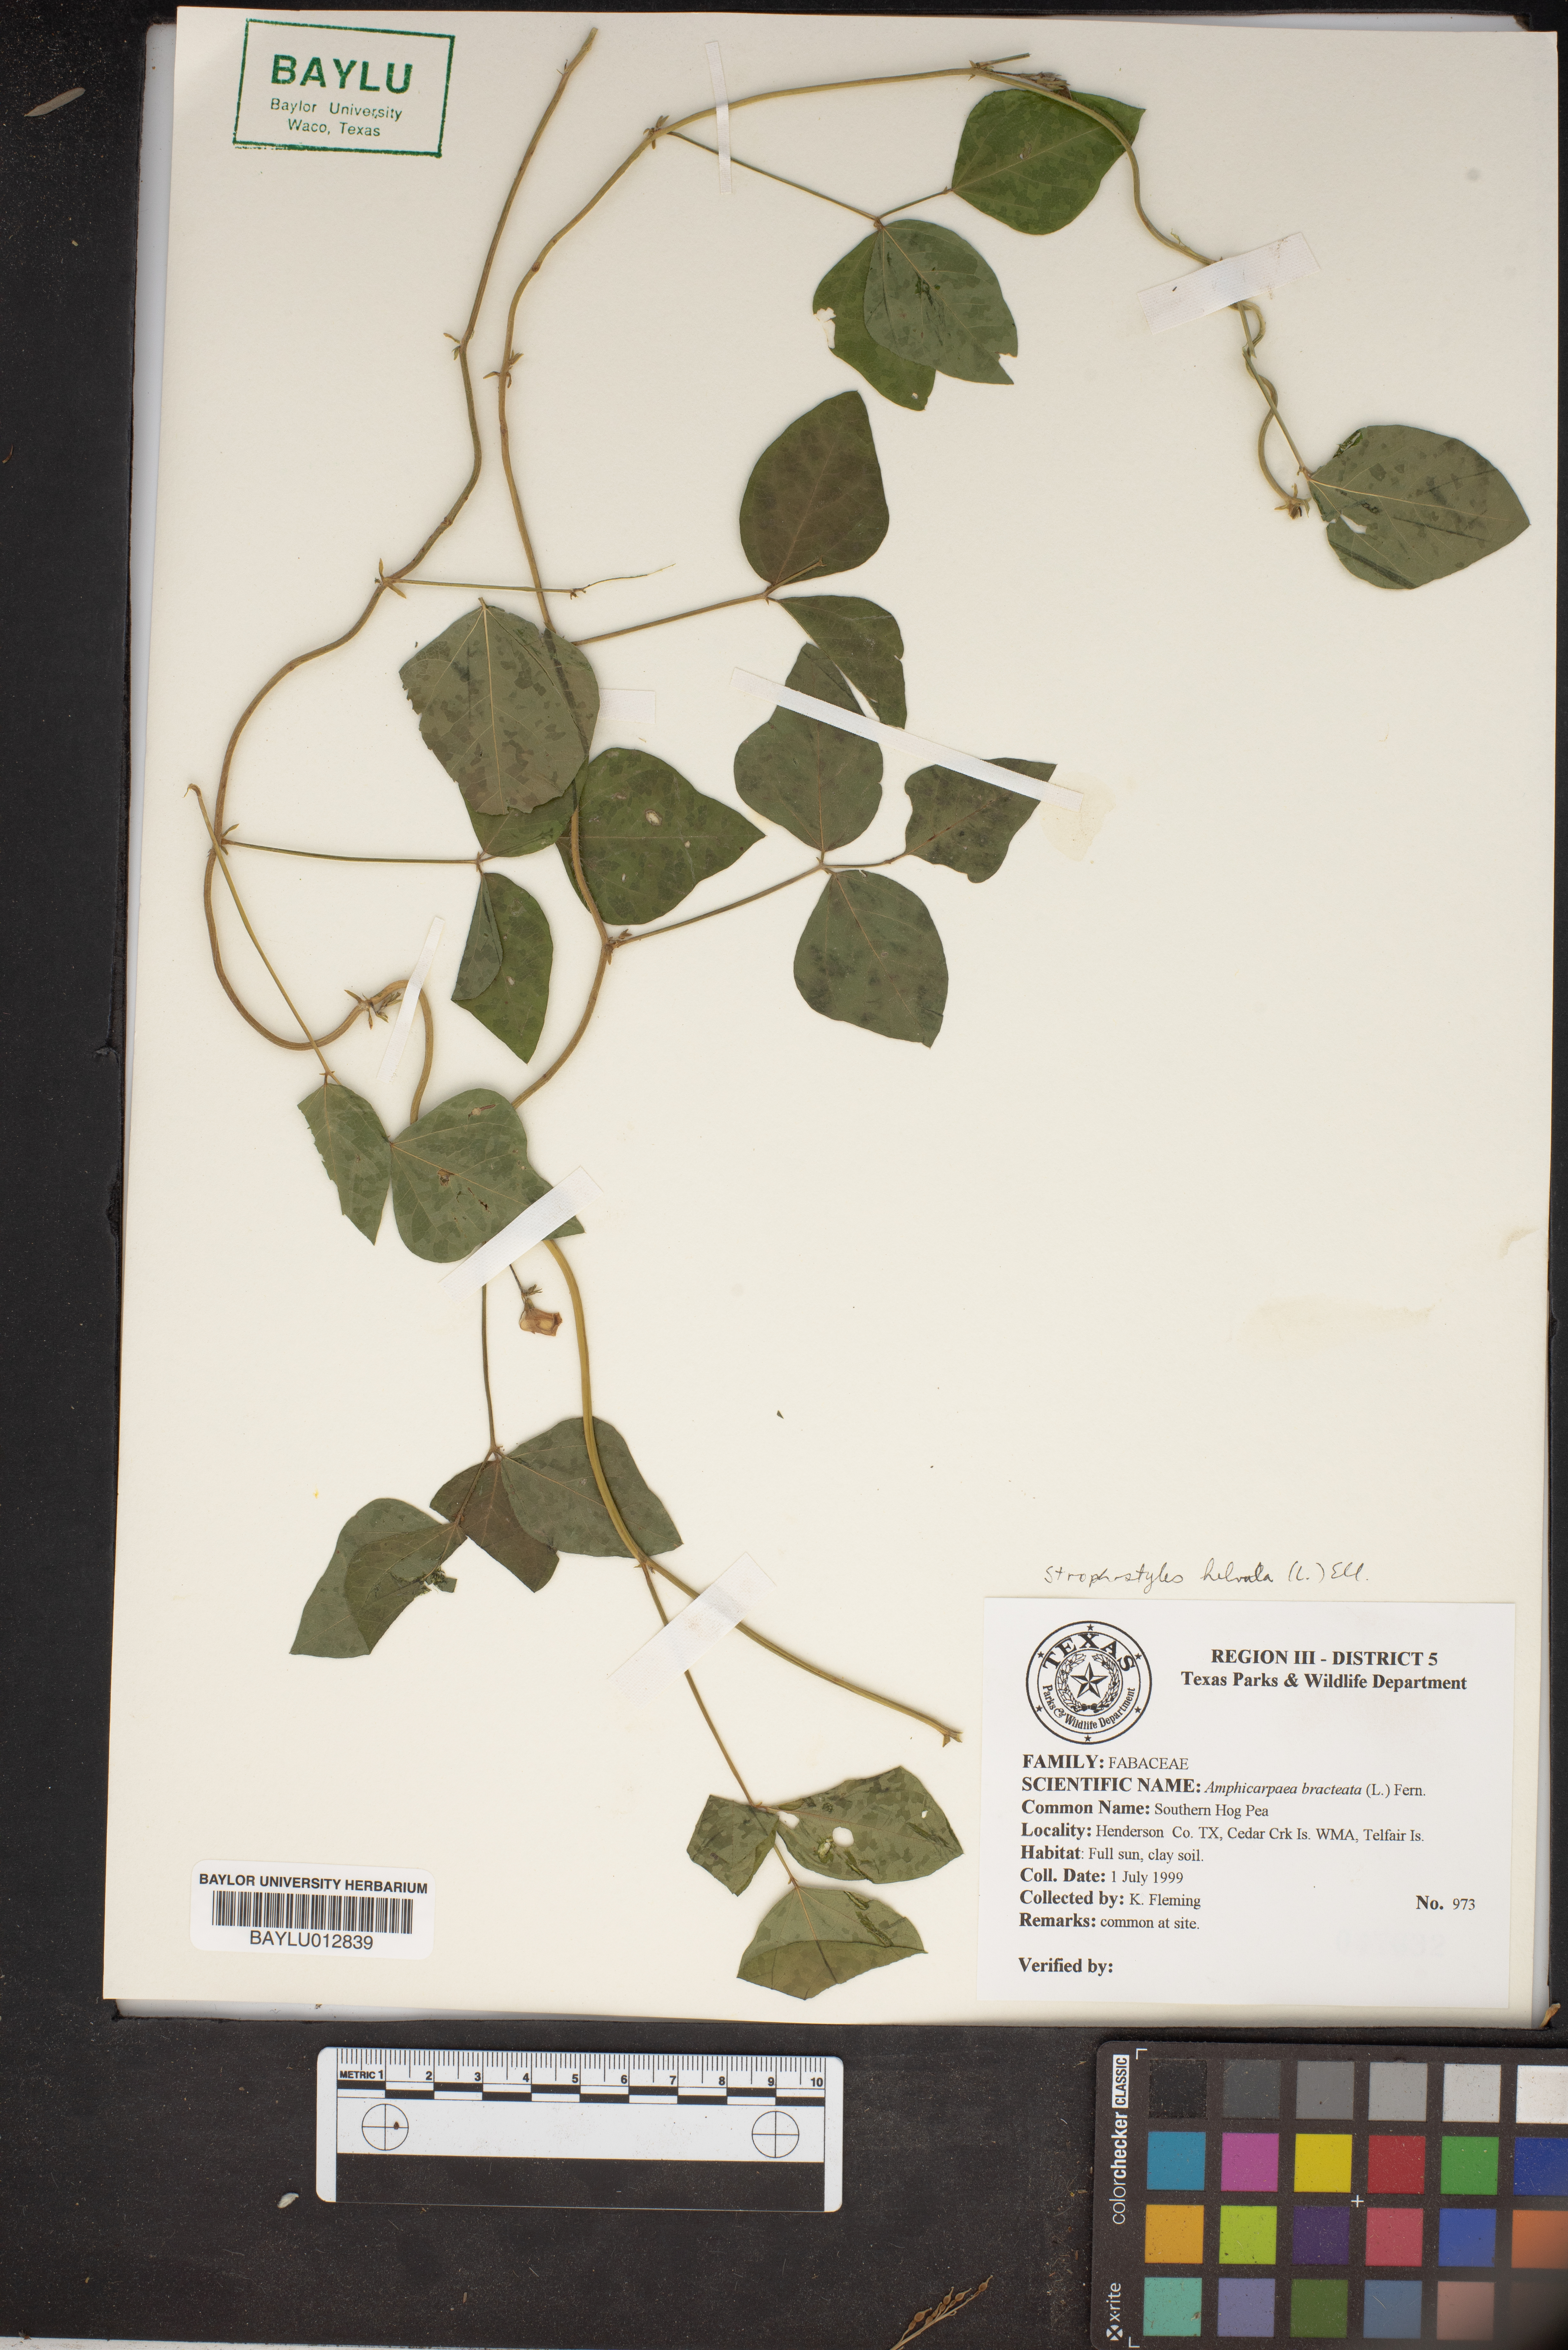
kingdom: Plantae
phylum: Tracheophyta
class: Magnoliopsida
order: Fabales
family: Fabaceae
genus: Amphicarpaea
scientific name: Amphicarpaea bracteata
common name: American hog peanut
